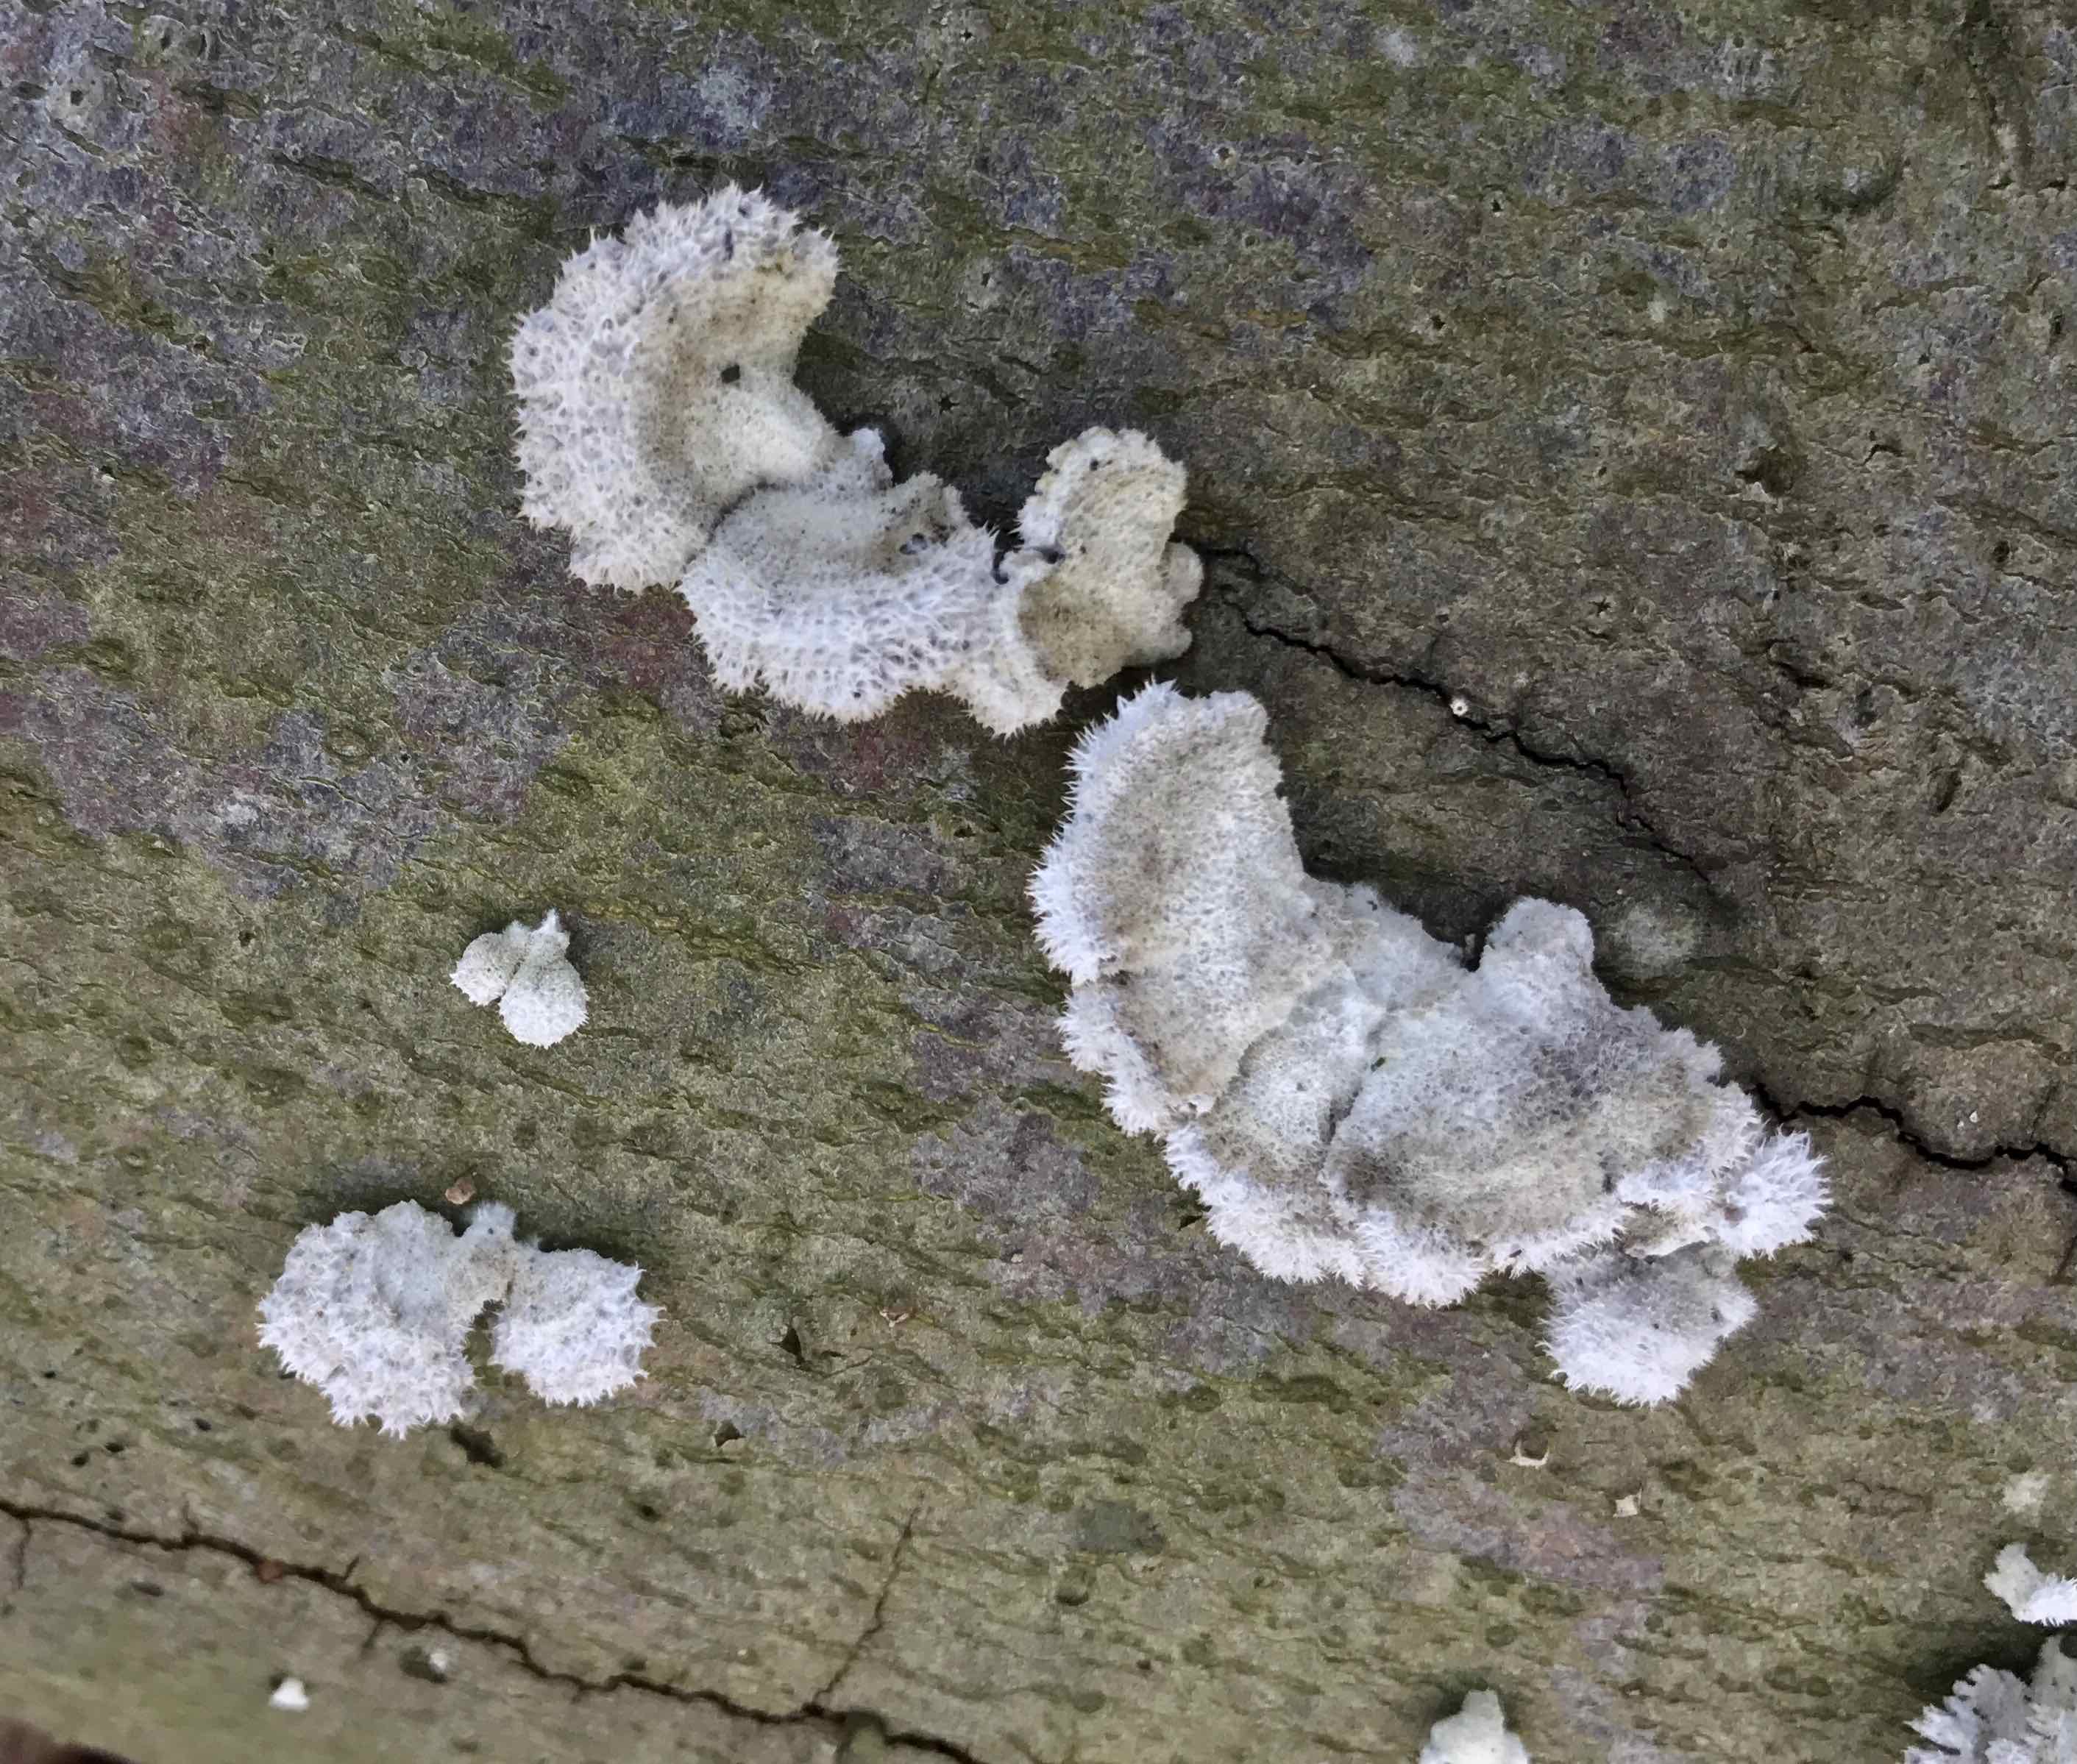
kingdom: Fungi
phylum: Basidiomycota
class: Agaricomycetes
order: Agaricales
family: Schizophyllaceae
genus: Schizophyllum
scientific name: Schizophyllum commune
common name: kløvblad
